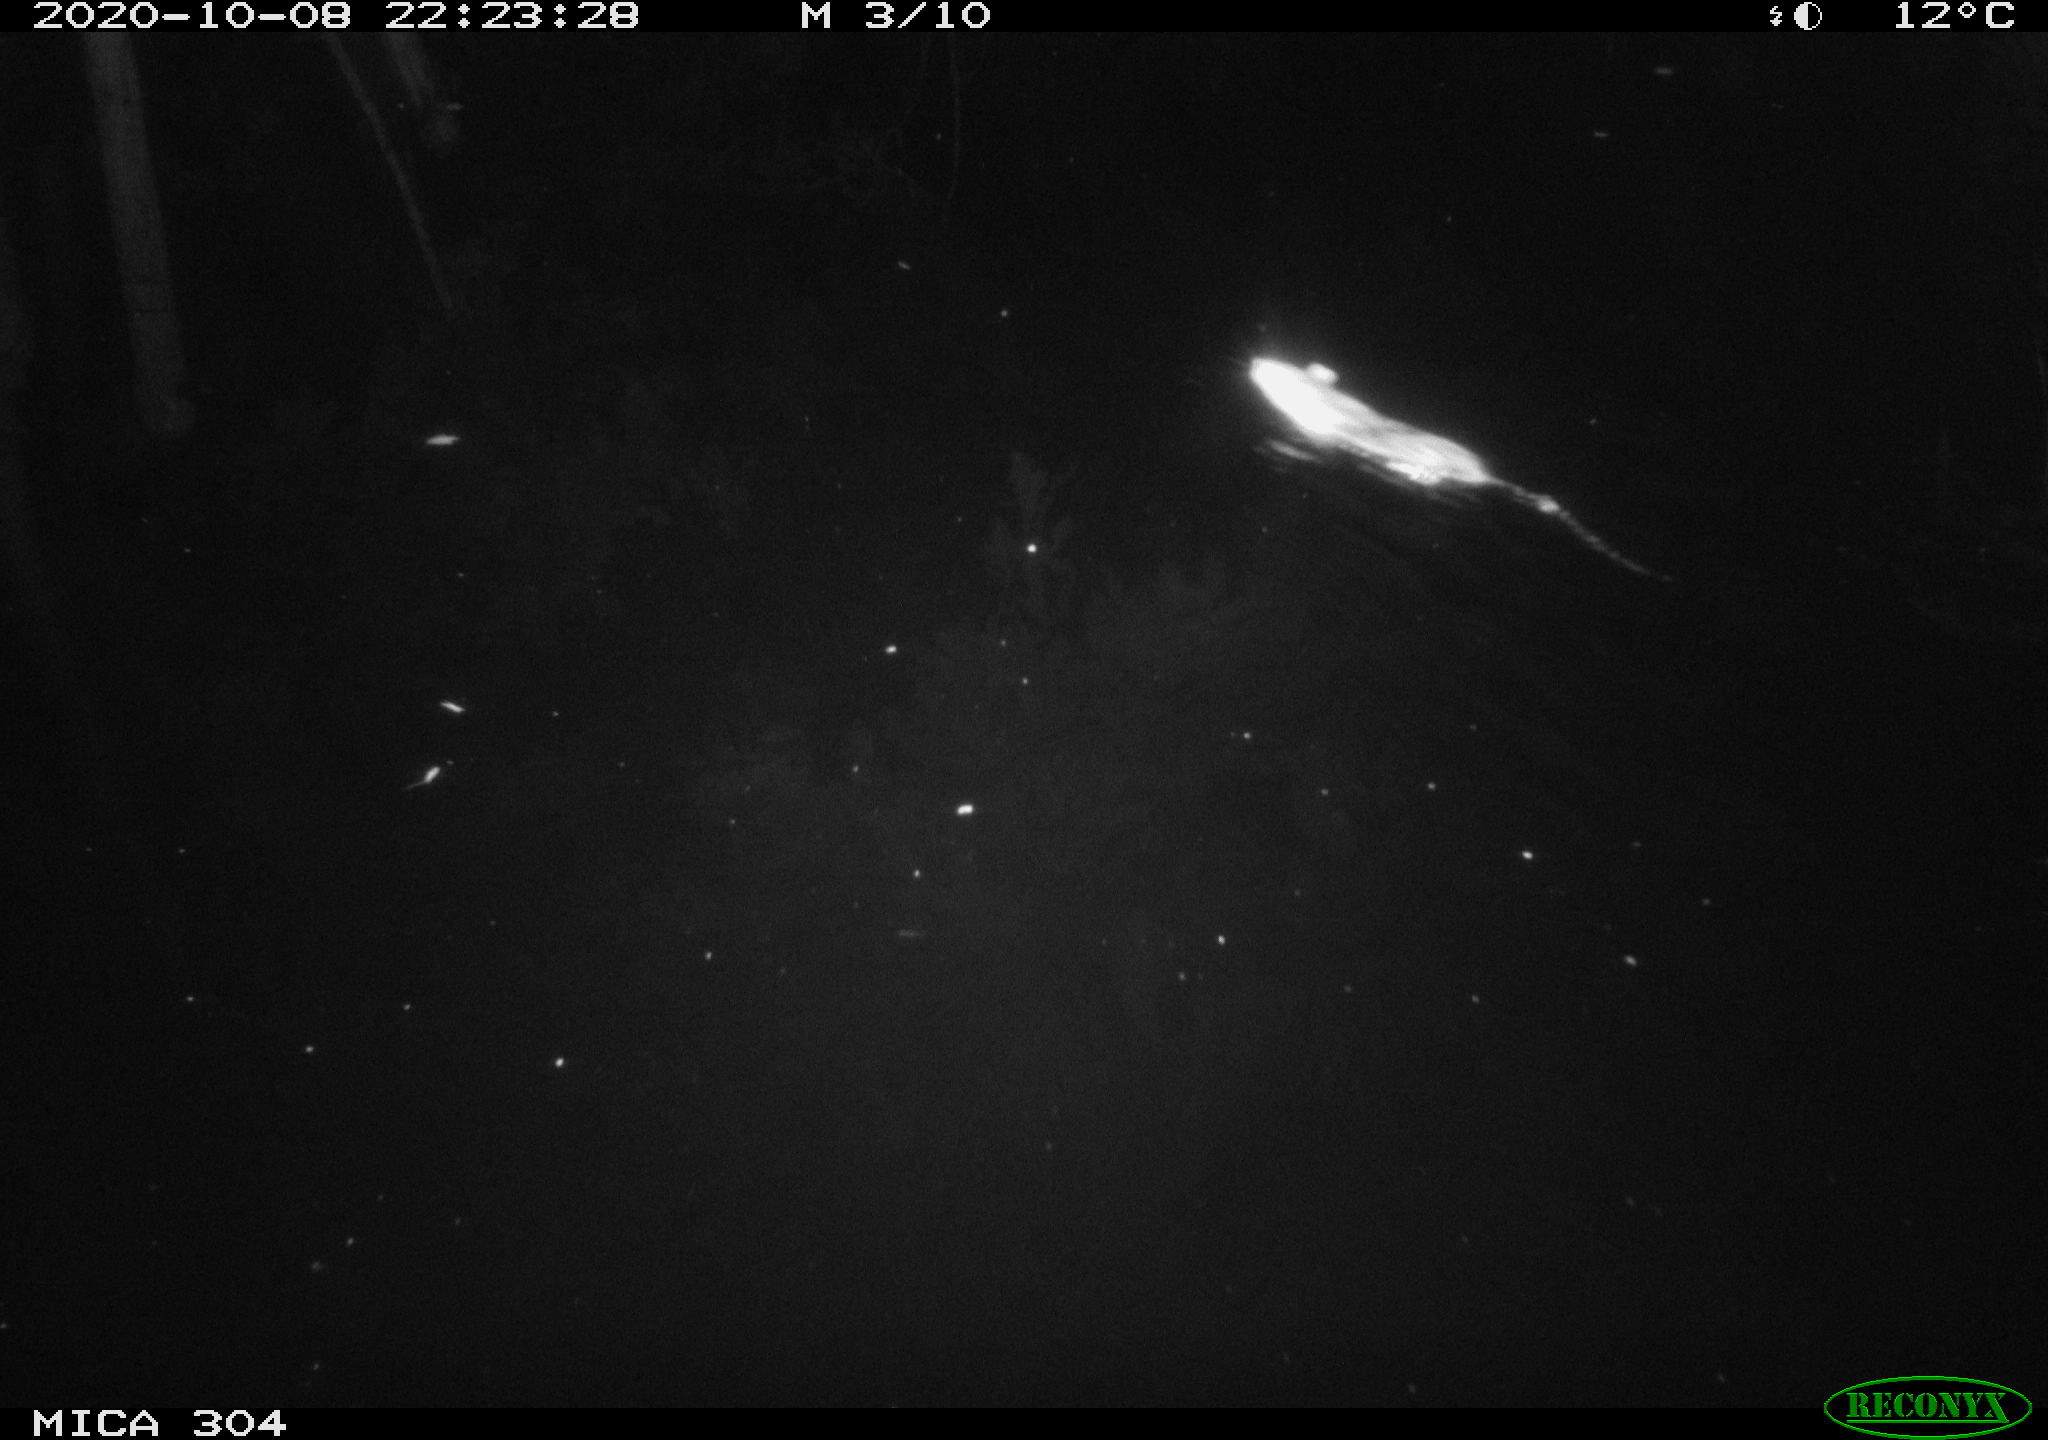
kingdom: Animalia
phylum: Chordata
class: Mammalia
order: Rodentia
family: Muridae
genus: Rattus
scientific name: Rattus norvegicus
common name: Brown rat
